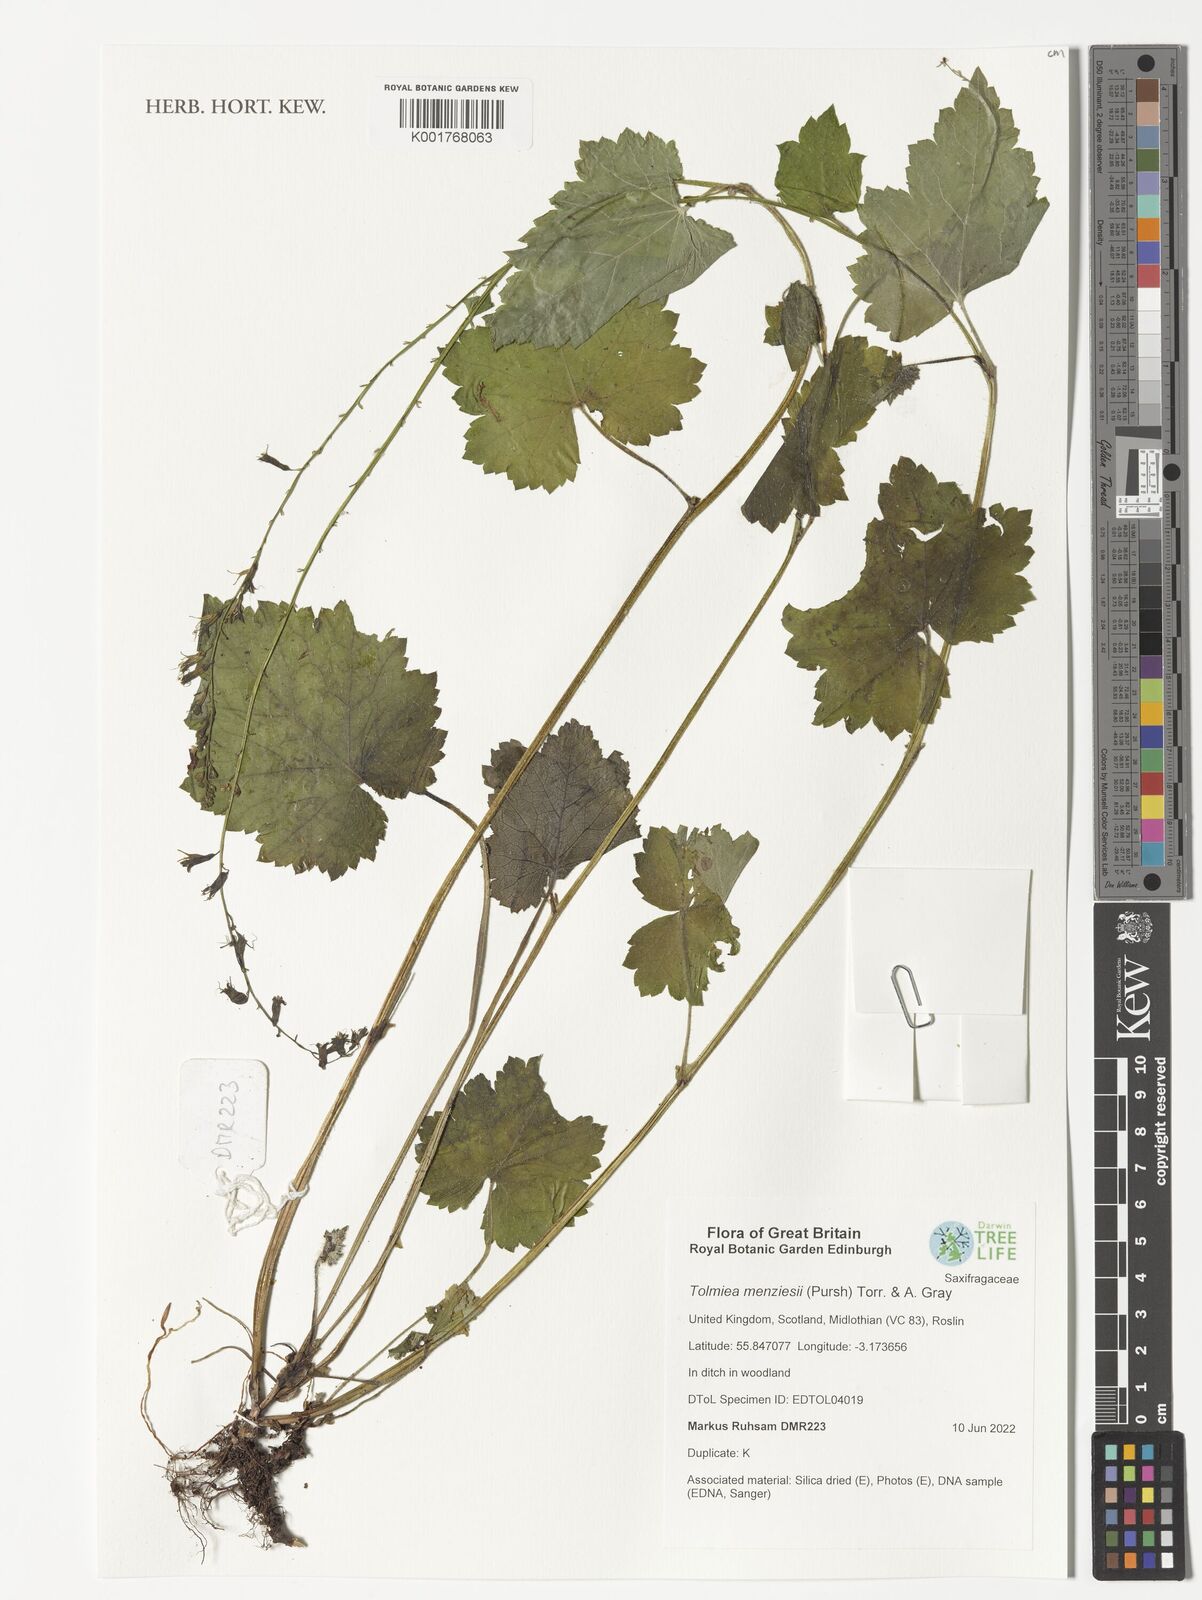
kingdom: Plantae
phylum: Tracheophyta
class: Magnoliopsida
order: Saxifragales
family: Saxifragaceae
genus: Tolmiea
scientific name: Tolmiea menziesii
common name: Pick-a-back-plant
